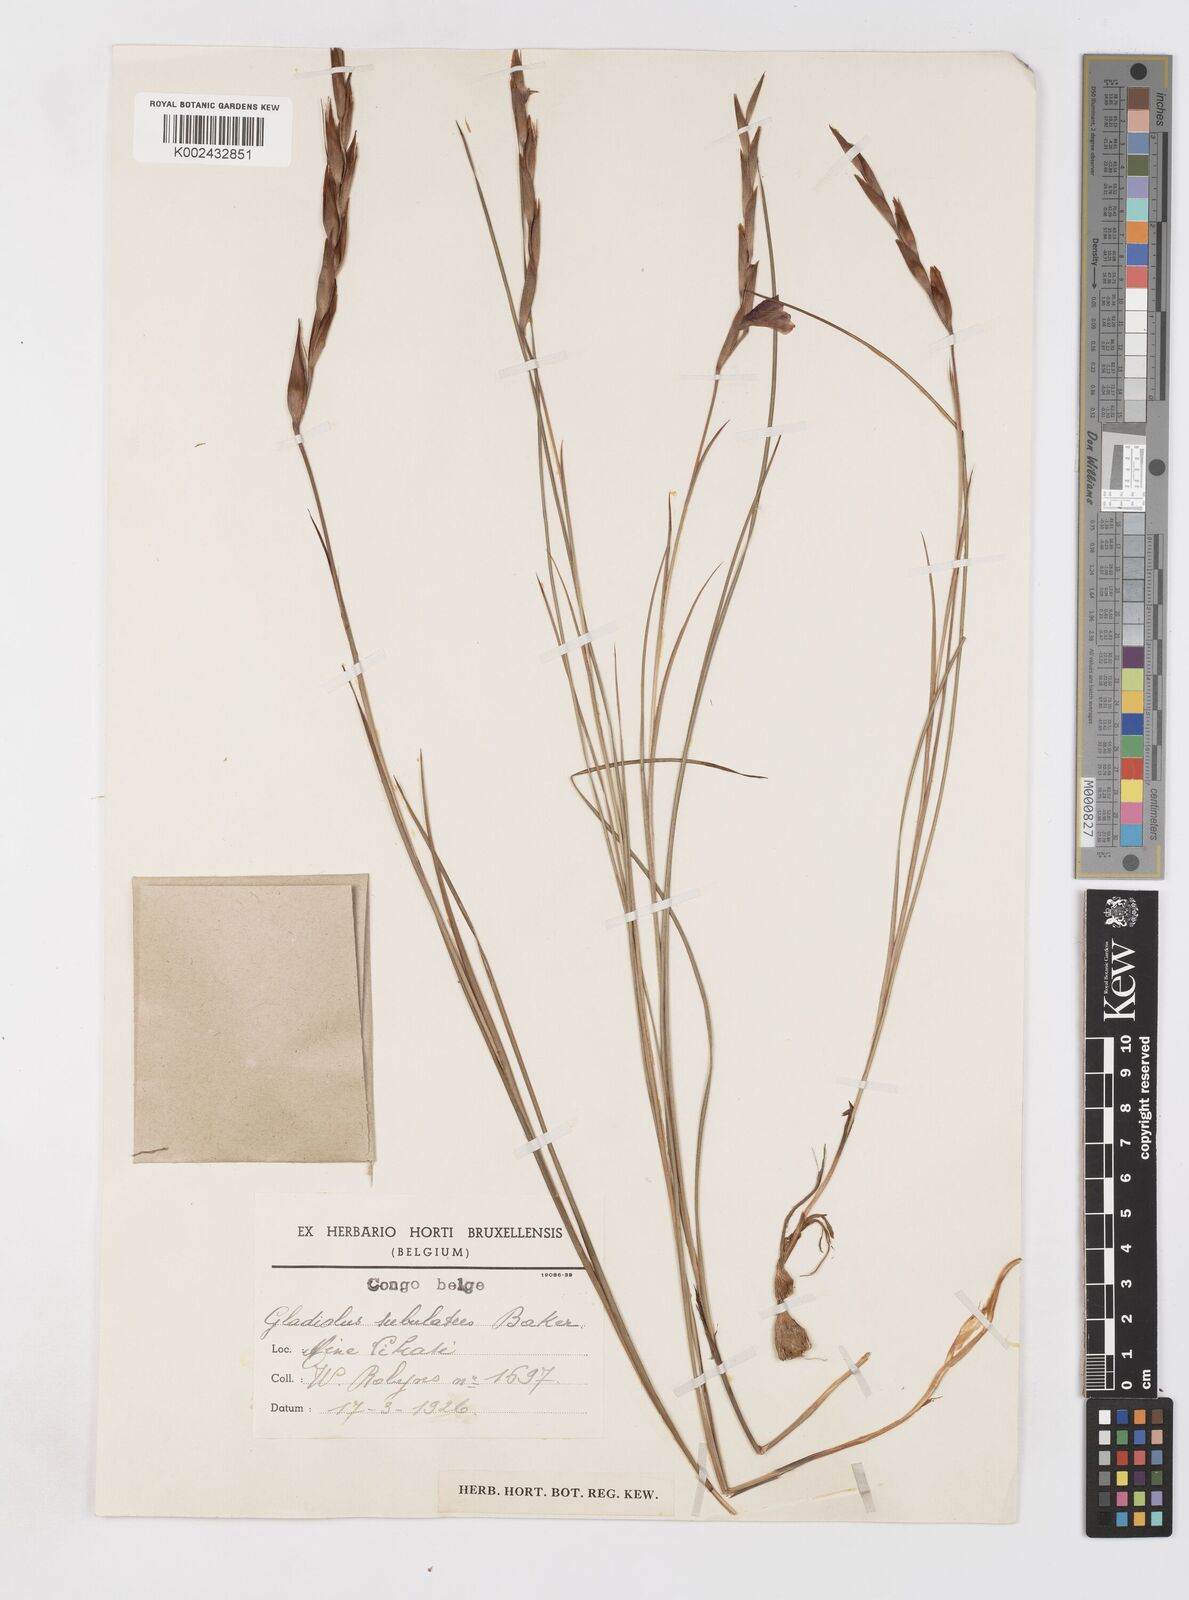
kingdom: Plantae
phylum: Tracheophyta
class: Liliopsida
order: Asparagales
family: Iridaceae
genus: Gladiolus
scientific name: Gladiolus gregarius
